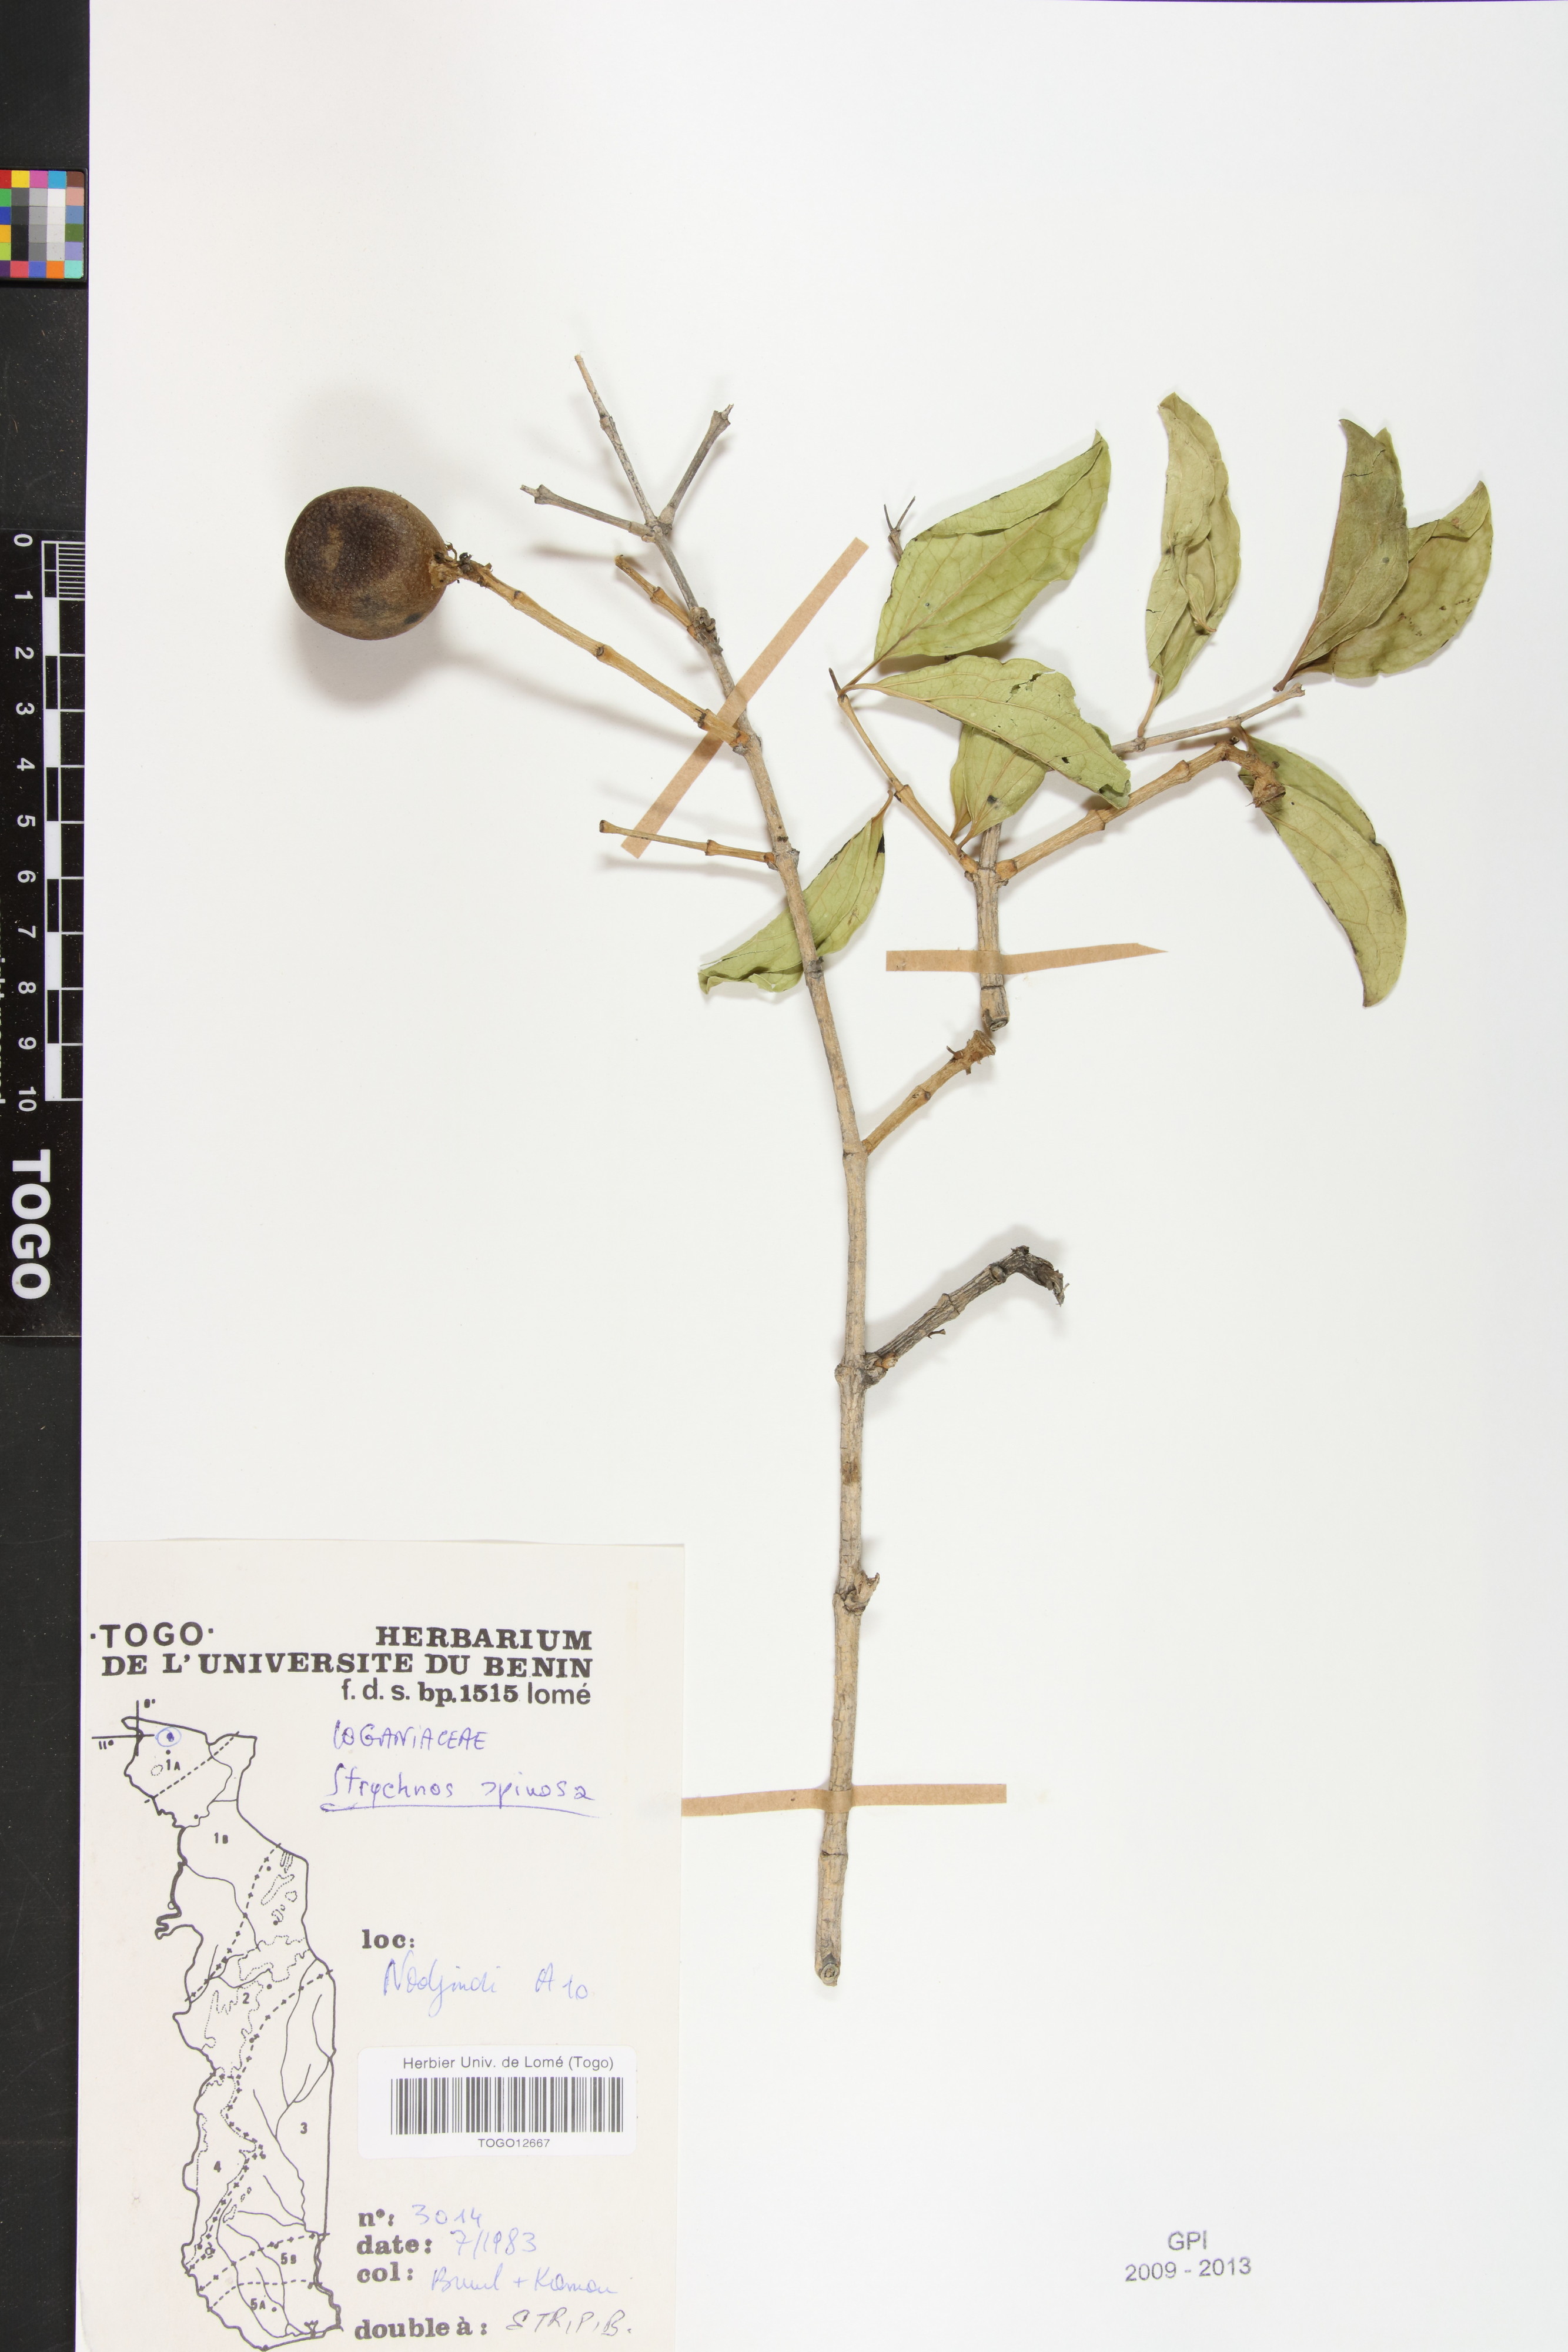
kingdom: Plantae
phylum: Tracheophyta
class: Magnoliopsida
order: Gentianales
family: Loganiaceae
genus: Strychnos
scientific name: Strychnos spinosa
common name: Natal orange
